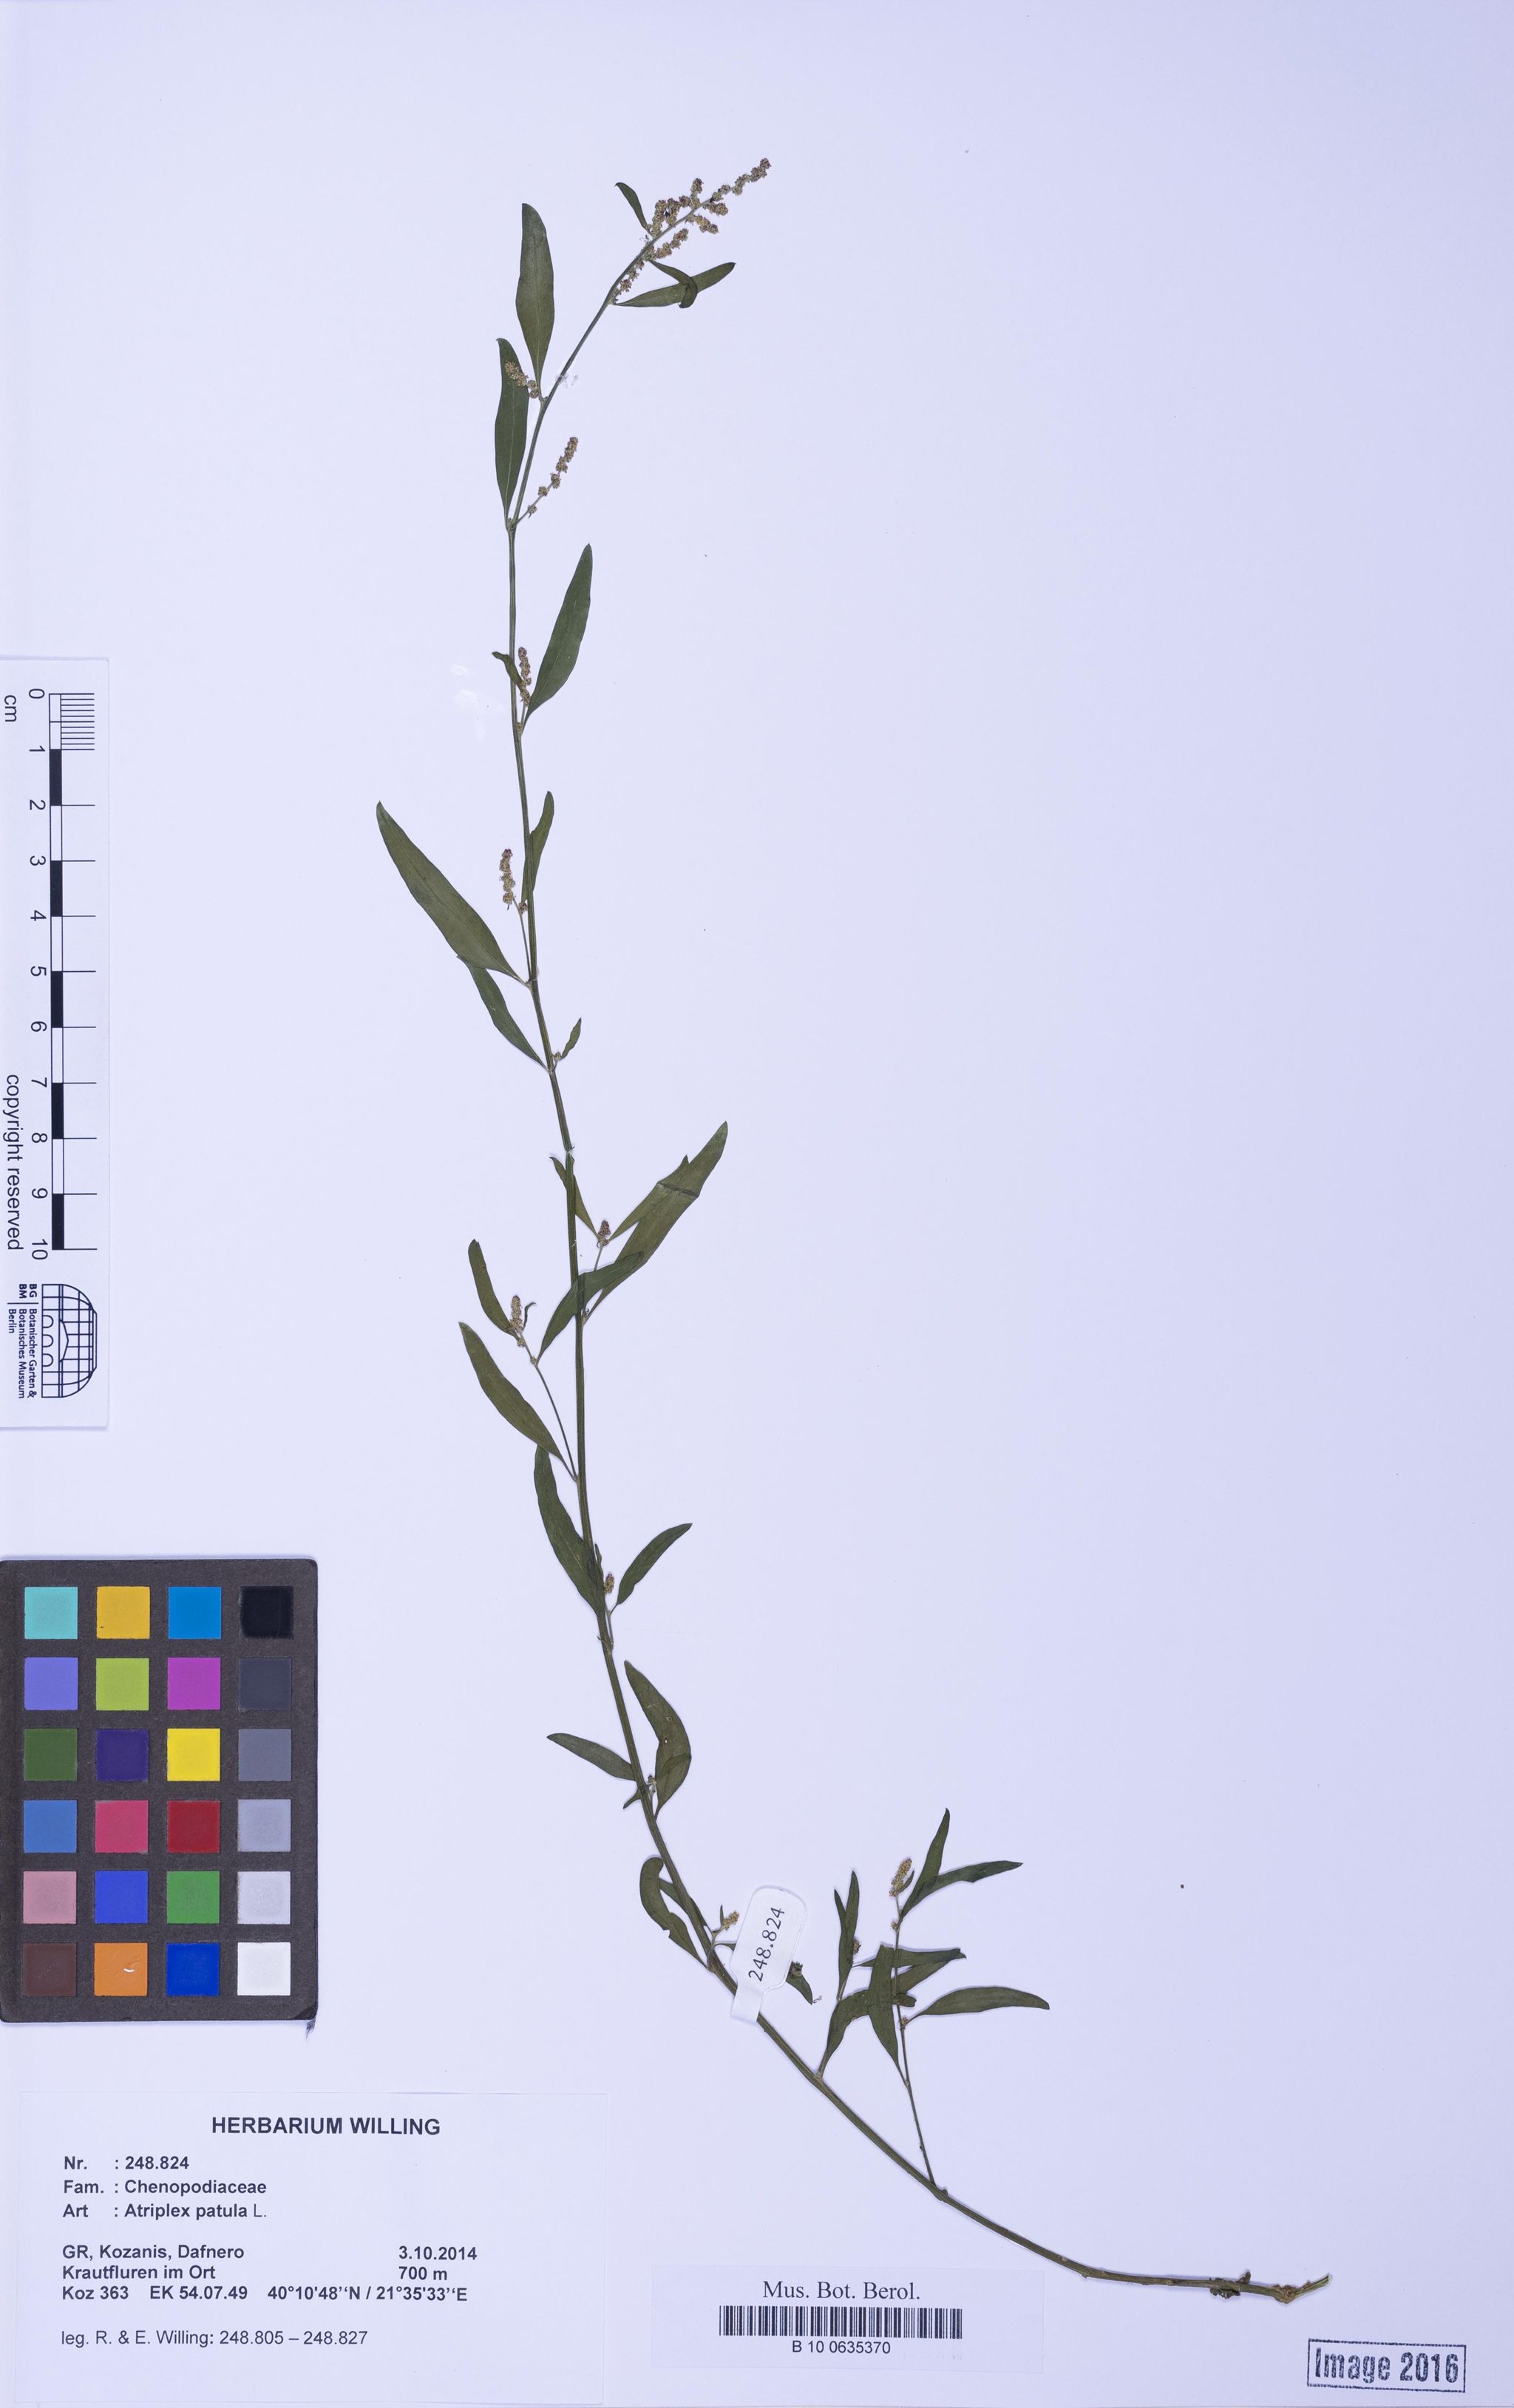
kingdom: Plantae
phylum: Tracheophyta
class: Magnoliopsida
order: Caryophyllales
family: Amaranthaceae
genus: Atriplex
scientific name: Atriplex patula
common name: Common orache
